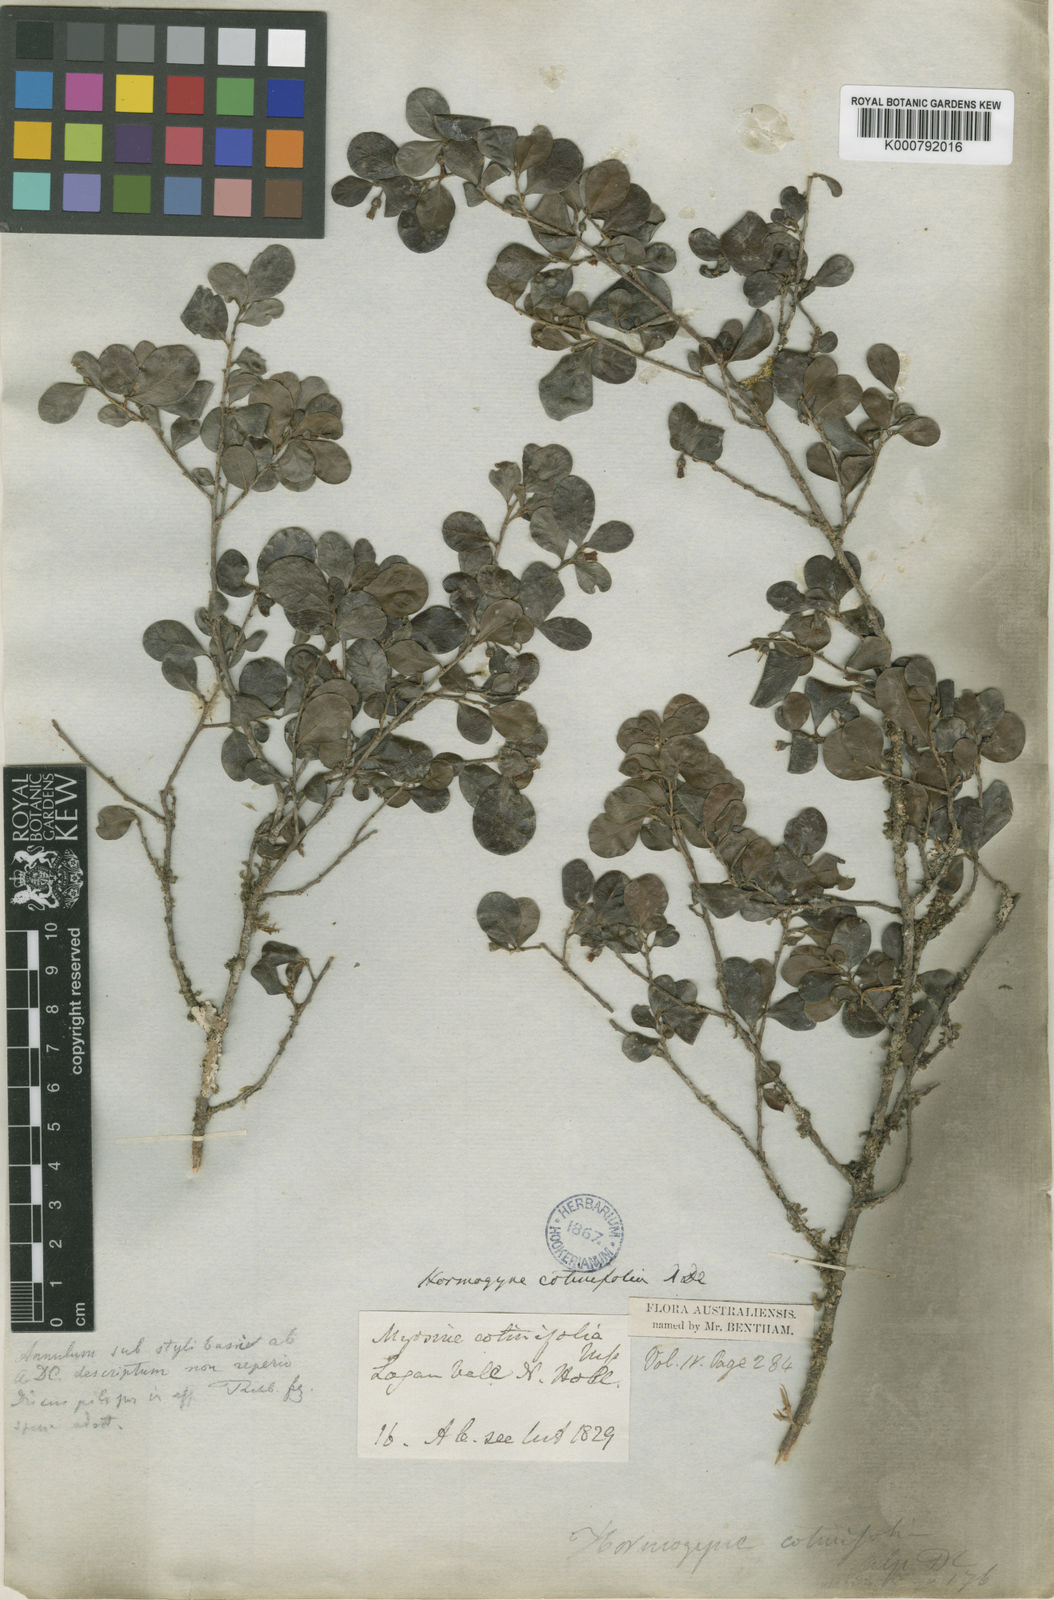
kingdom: Plantae
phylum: Tracheophyta
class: Magnoliopsida
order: Ericales
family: Sapotaceae
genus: Planchonella
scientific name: Planchonella cotinifolia
